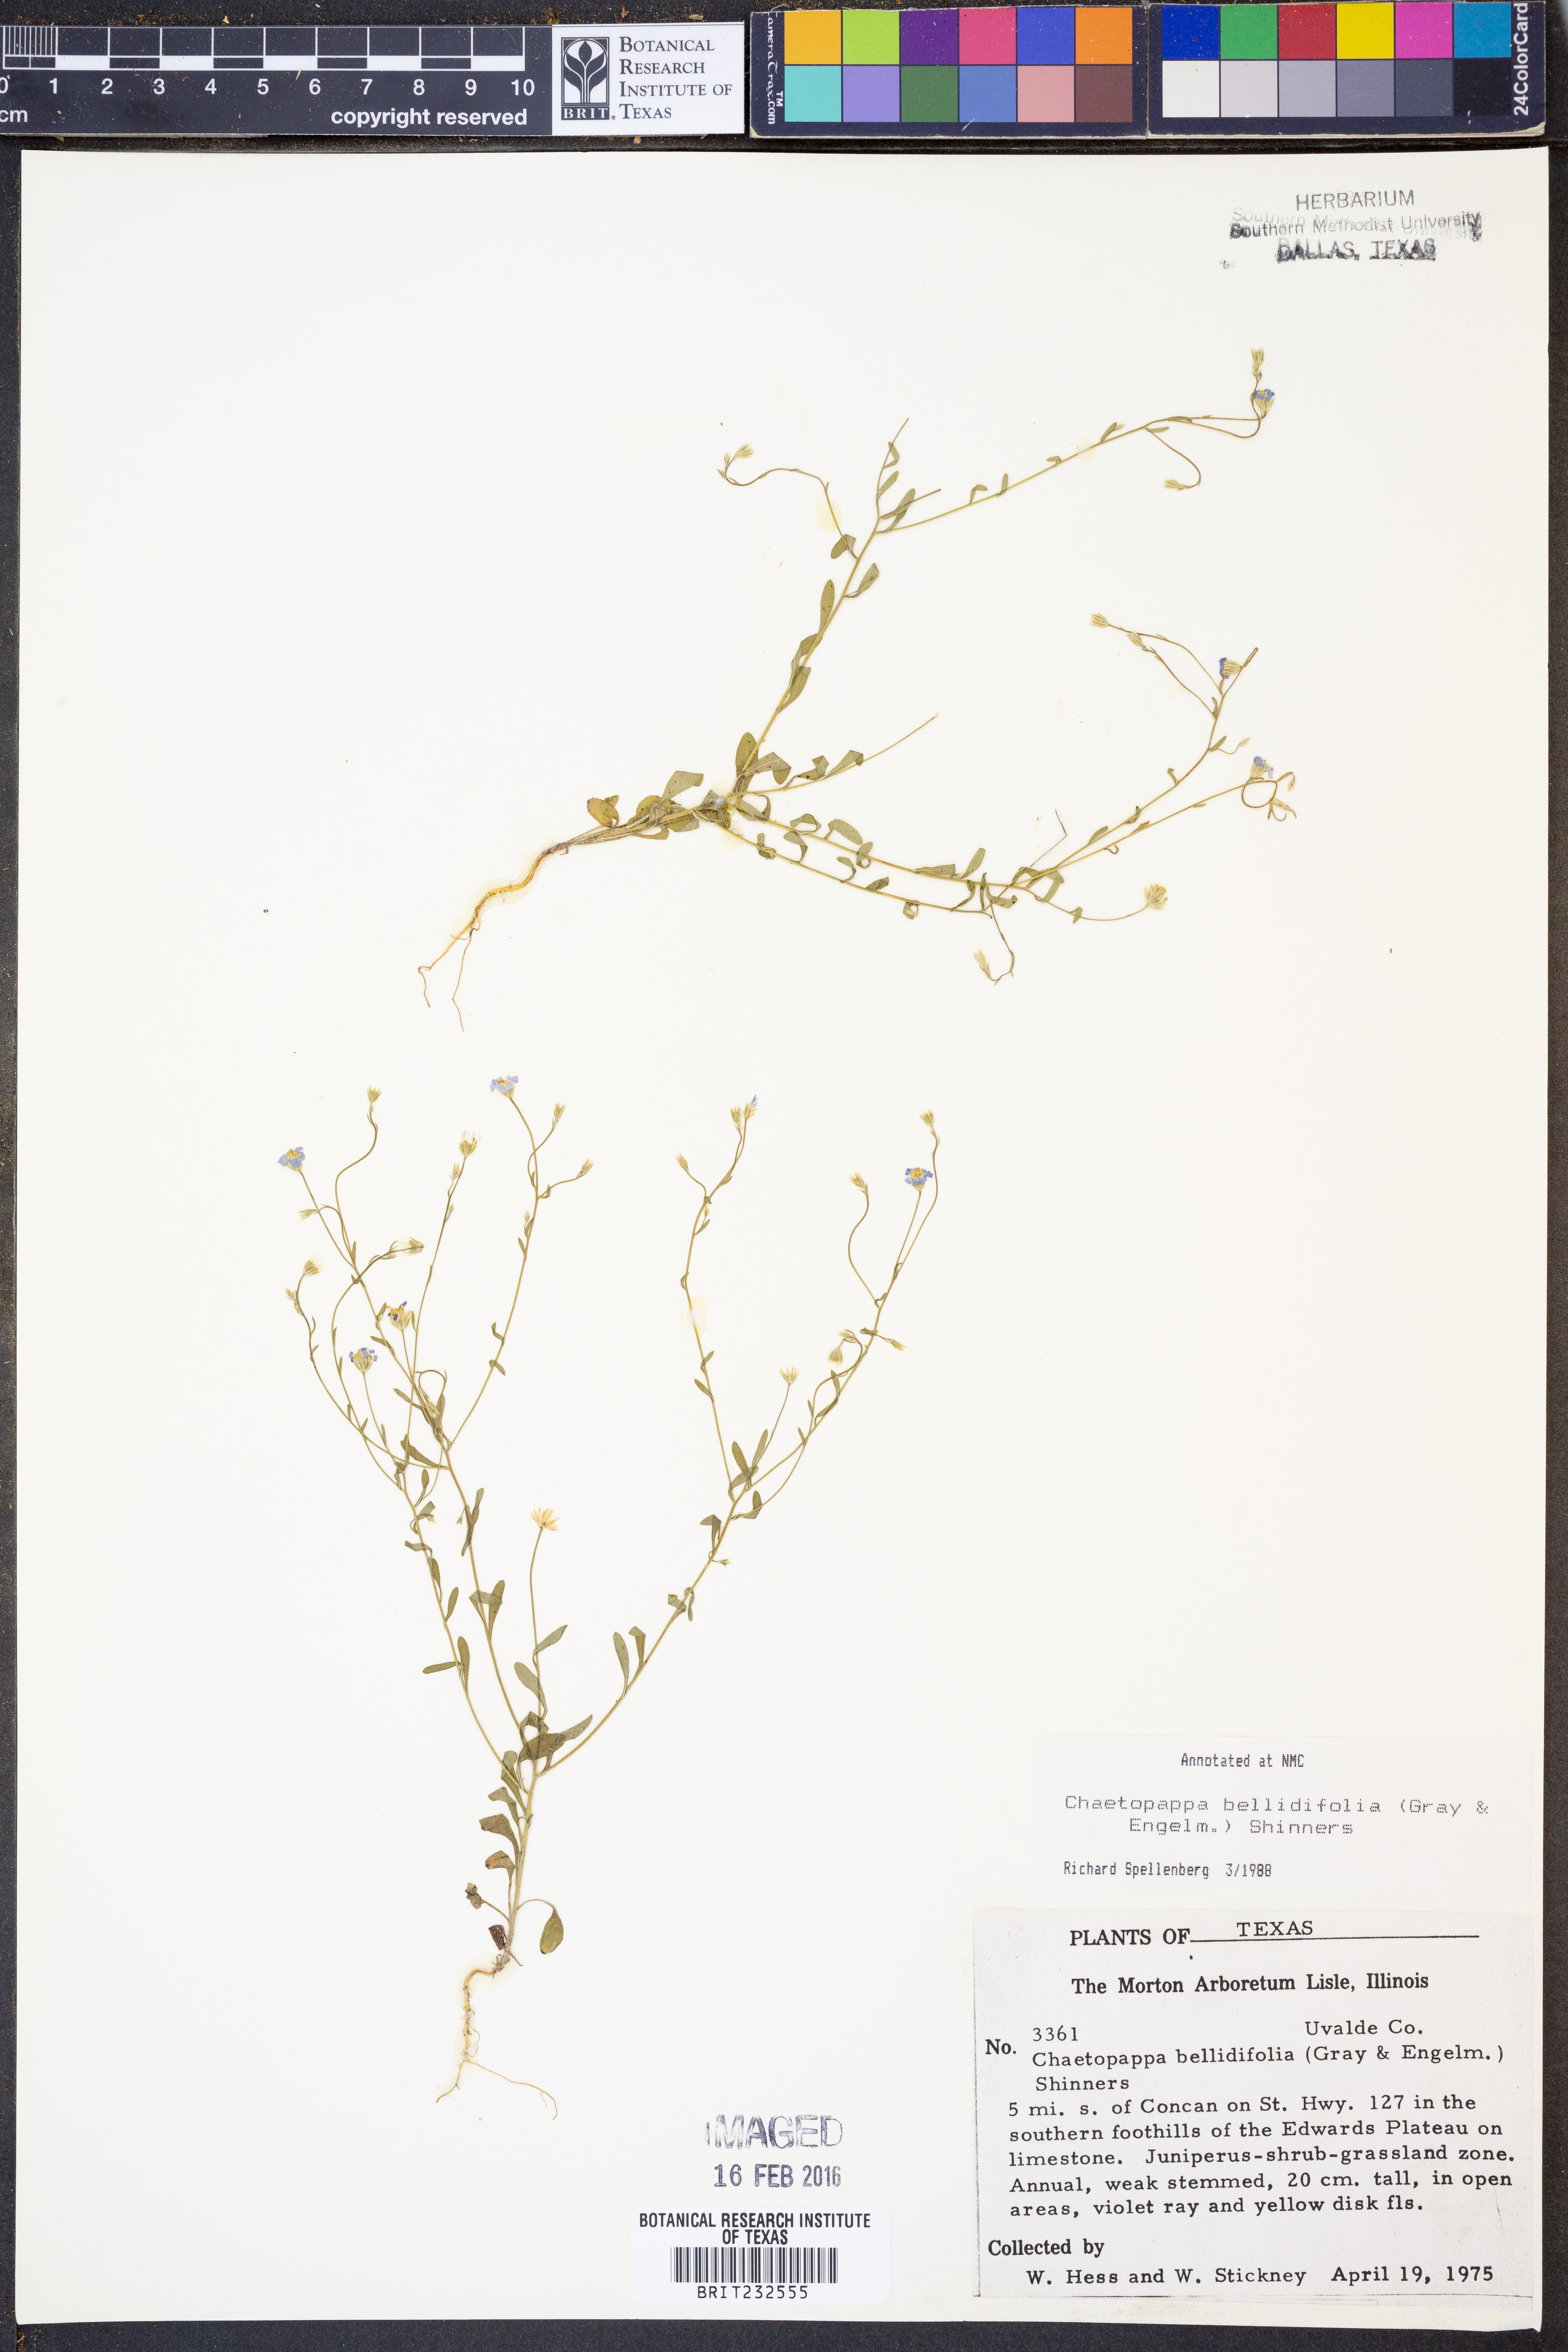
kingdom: Plantae
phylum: Tracheophyta
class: Magnoliopsida
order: Asterales
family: Asteraceae
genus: Chaetopappa
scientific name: Chaetopappa bellidifolia
